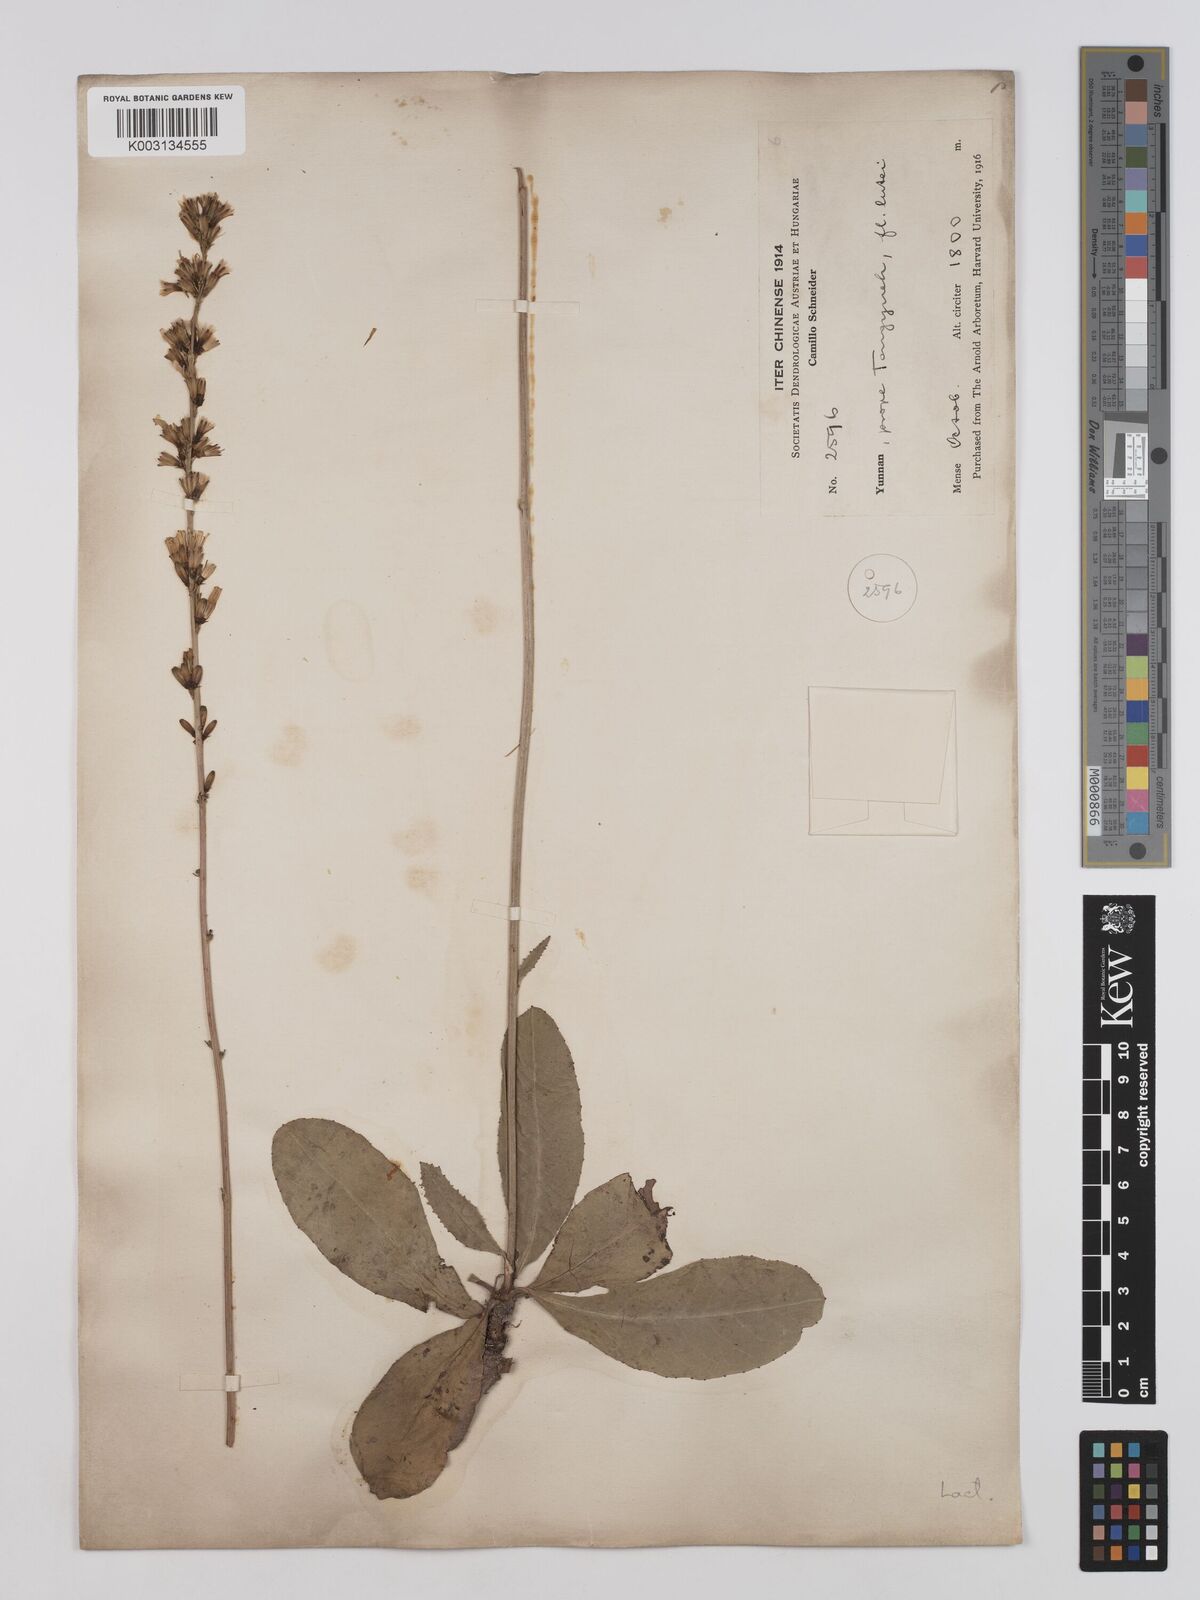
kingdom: Plantae
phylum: Tracheophyta
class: Magnoliopsida
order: Asterales
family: Asteraceae
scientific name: Asteraceae
